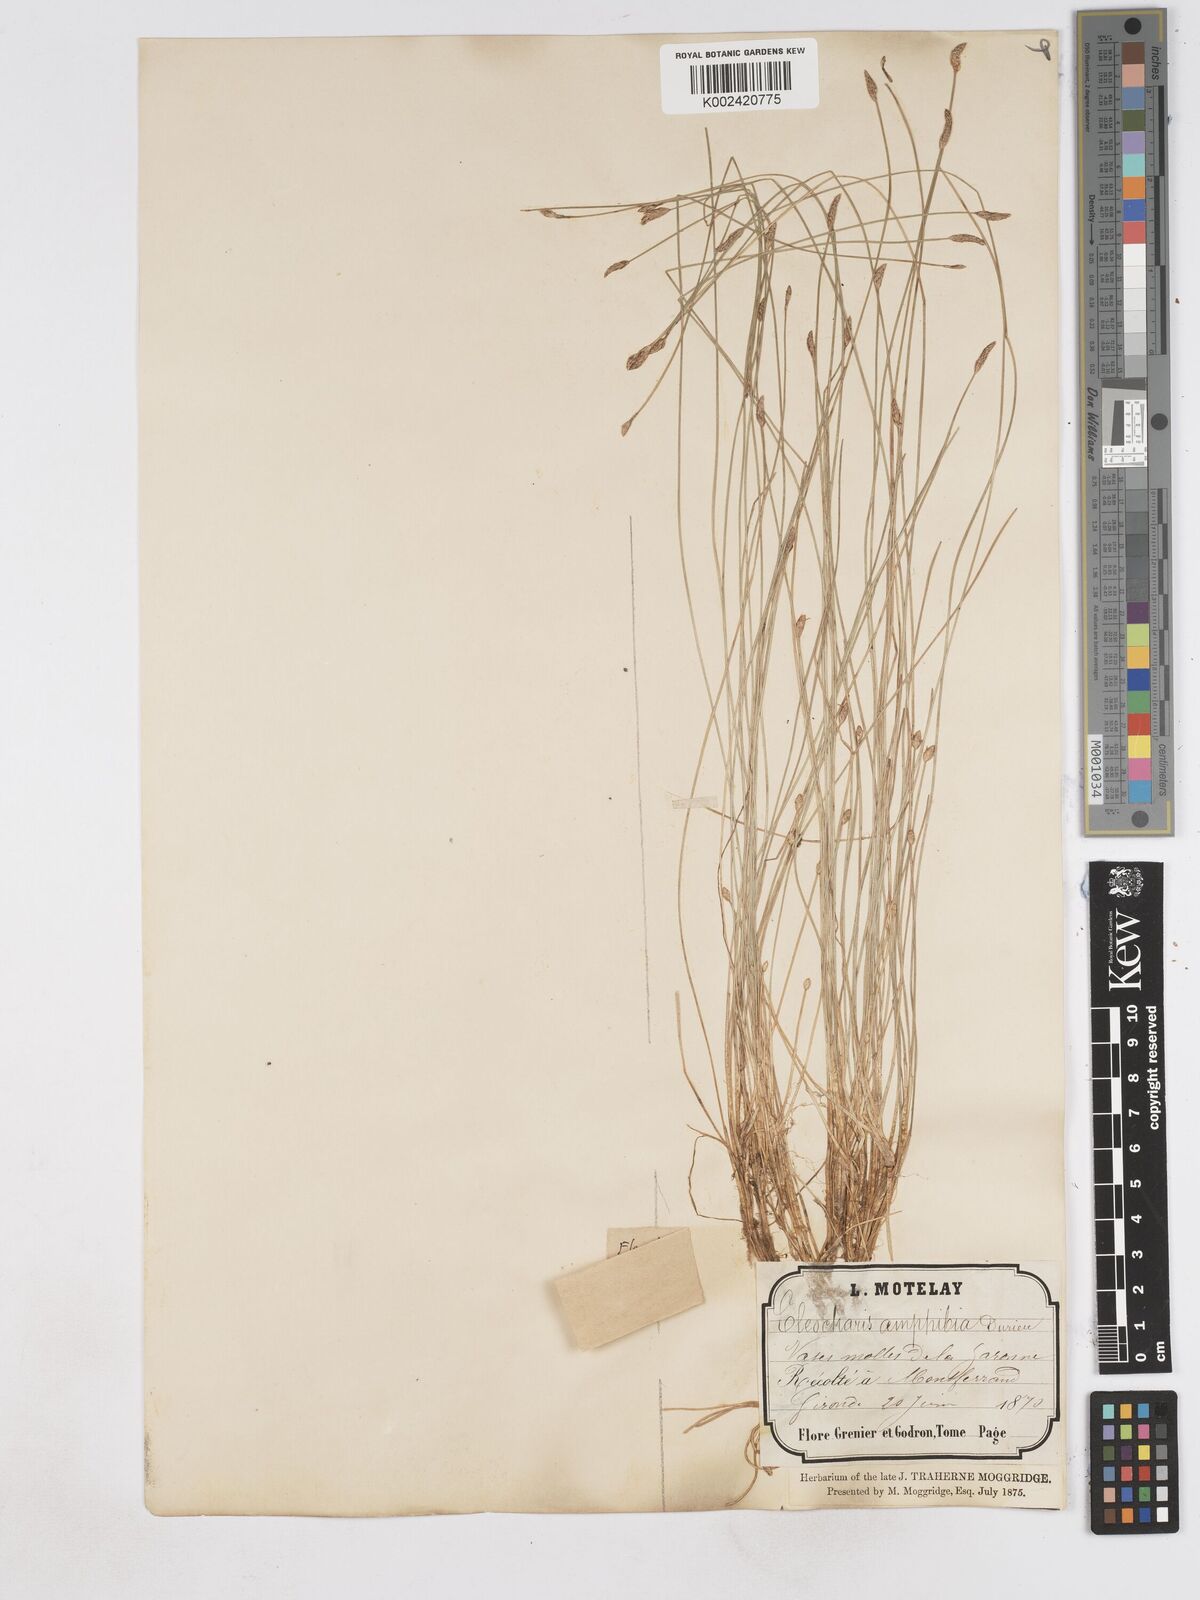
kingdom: Plantae
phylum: Tracheophyta
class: Liliopsida
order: Poales
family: Cyperaceae
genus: Eleocharis
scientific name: Eleocharis bonariensis
